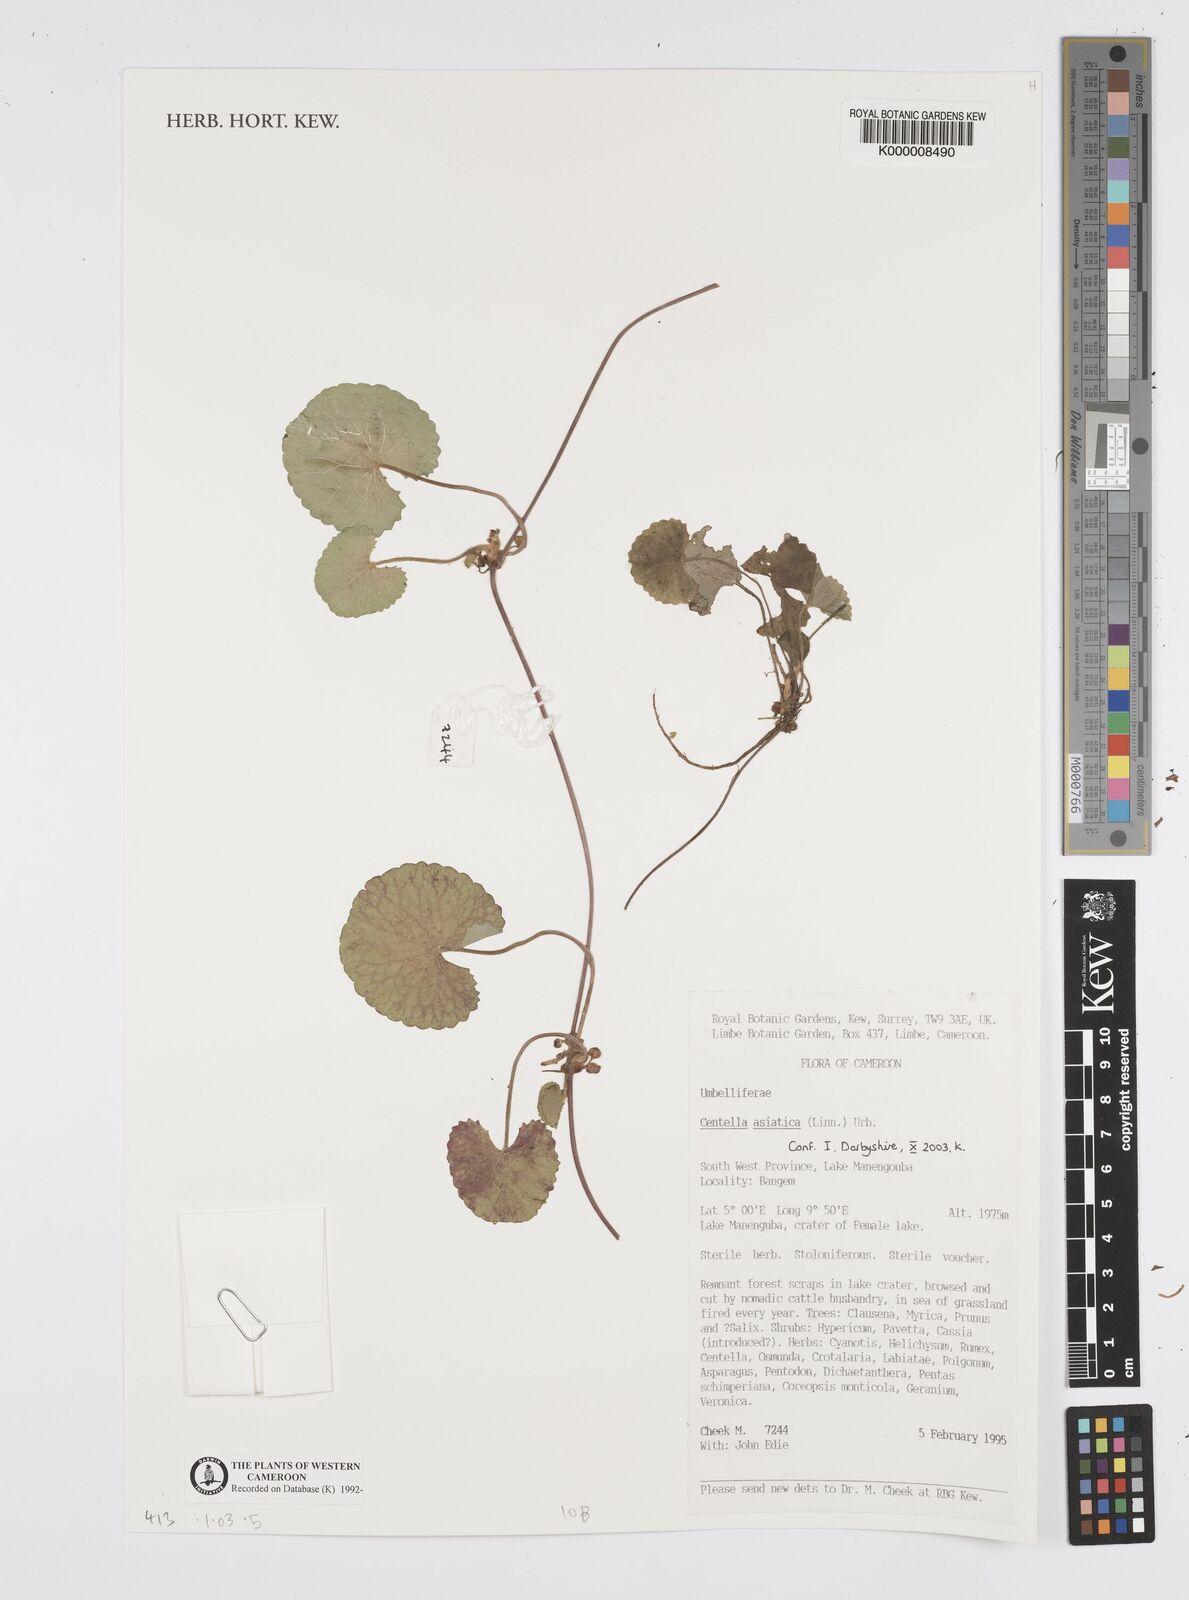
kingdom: Plantae
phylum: Tracheophyta
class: Magnoliopsida
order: Apiales
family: Apiaceae
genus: Centella
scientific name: Centella asiatica
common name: Spadeleaf
